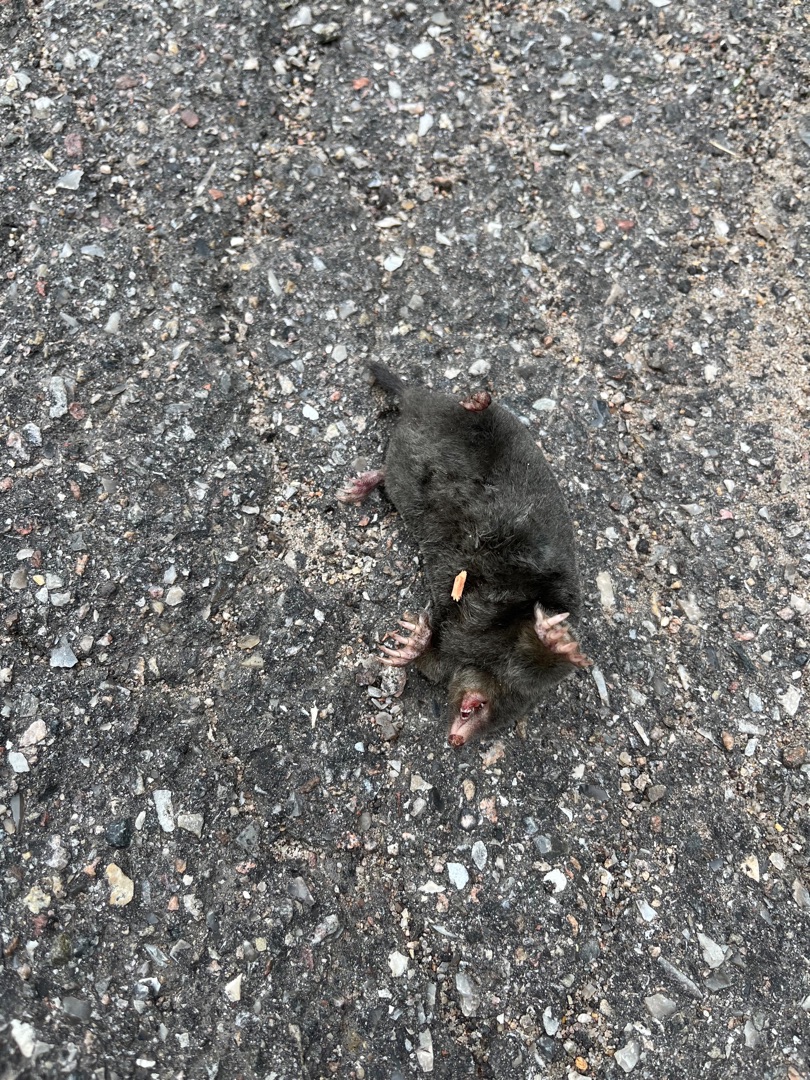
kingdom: Animalia
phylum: Chordata
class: Mammalia
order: Soricomorpha
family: Talpidae
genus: Talpa
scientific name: Talpa europaea
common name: Muldvarp
